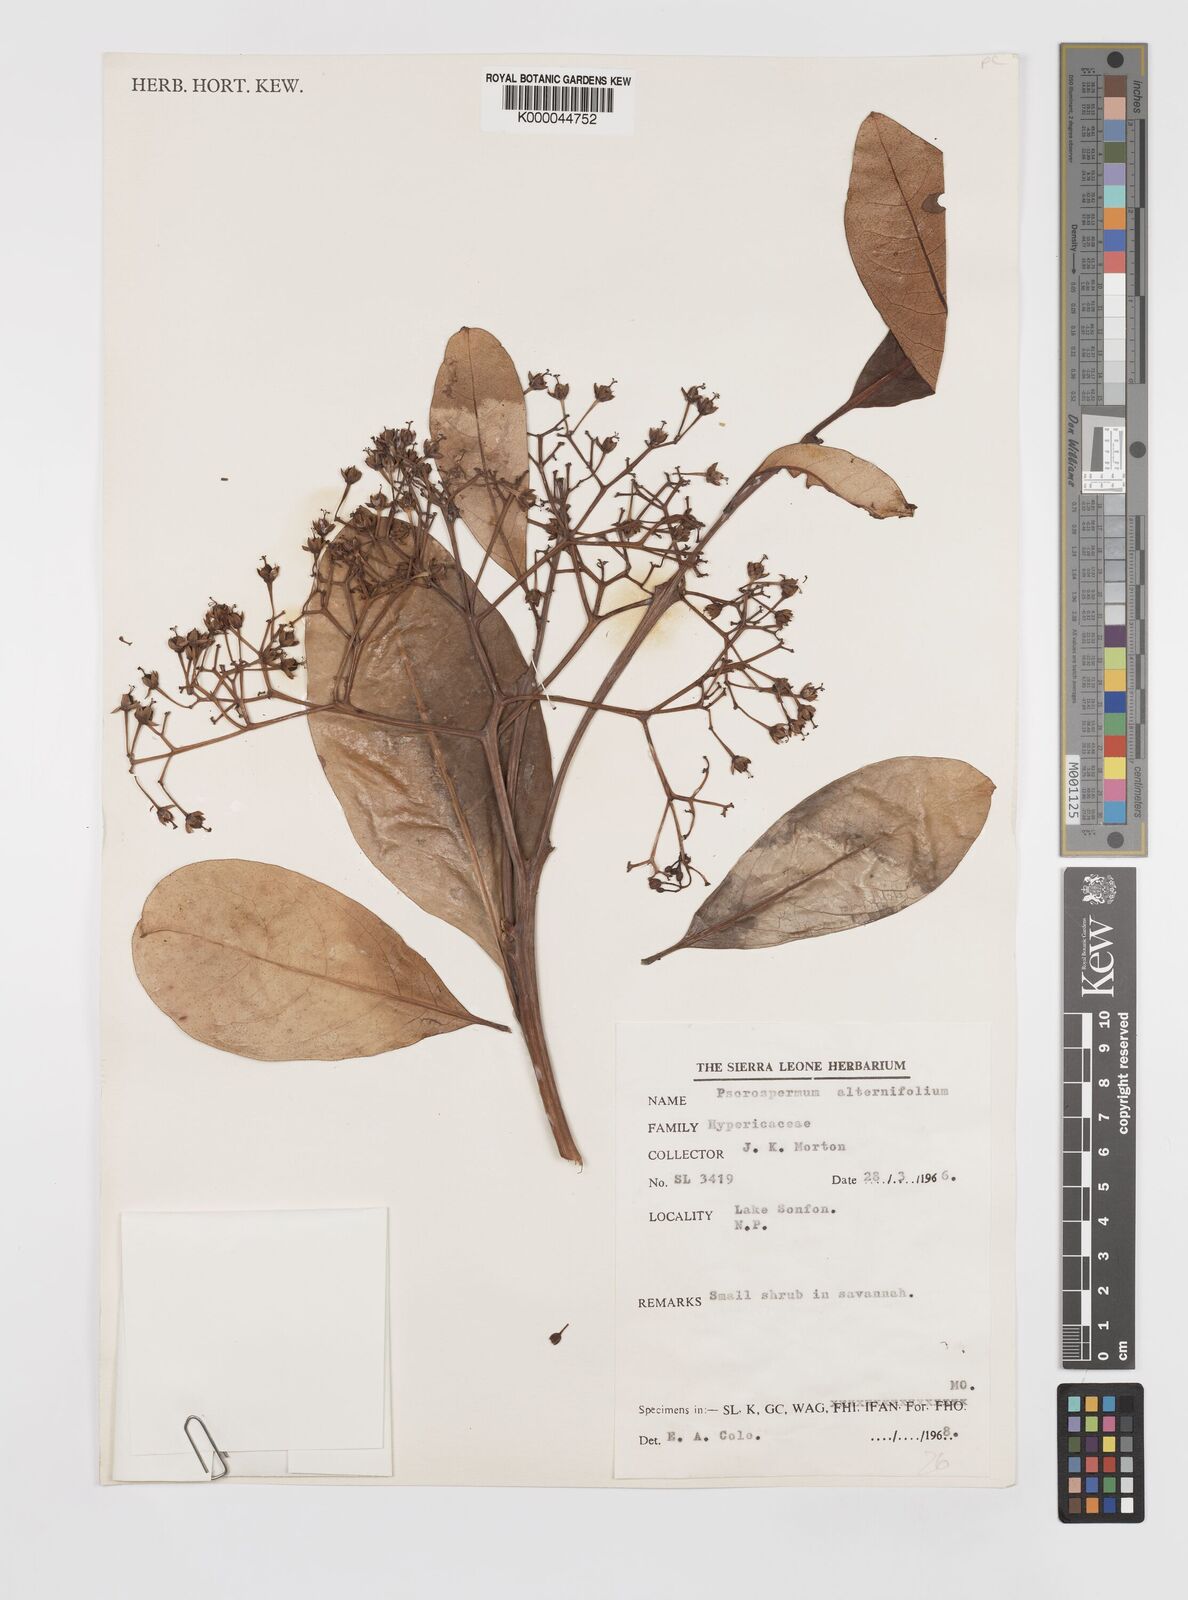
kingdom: Plantae
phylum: Tracheophyta
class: Magnoliopsida
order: Malpighiales
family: Hypericaceae
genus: Psorospermum
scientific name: Psorospermum alternifolium
